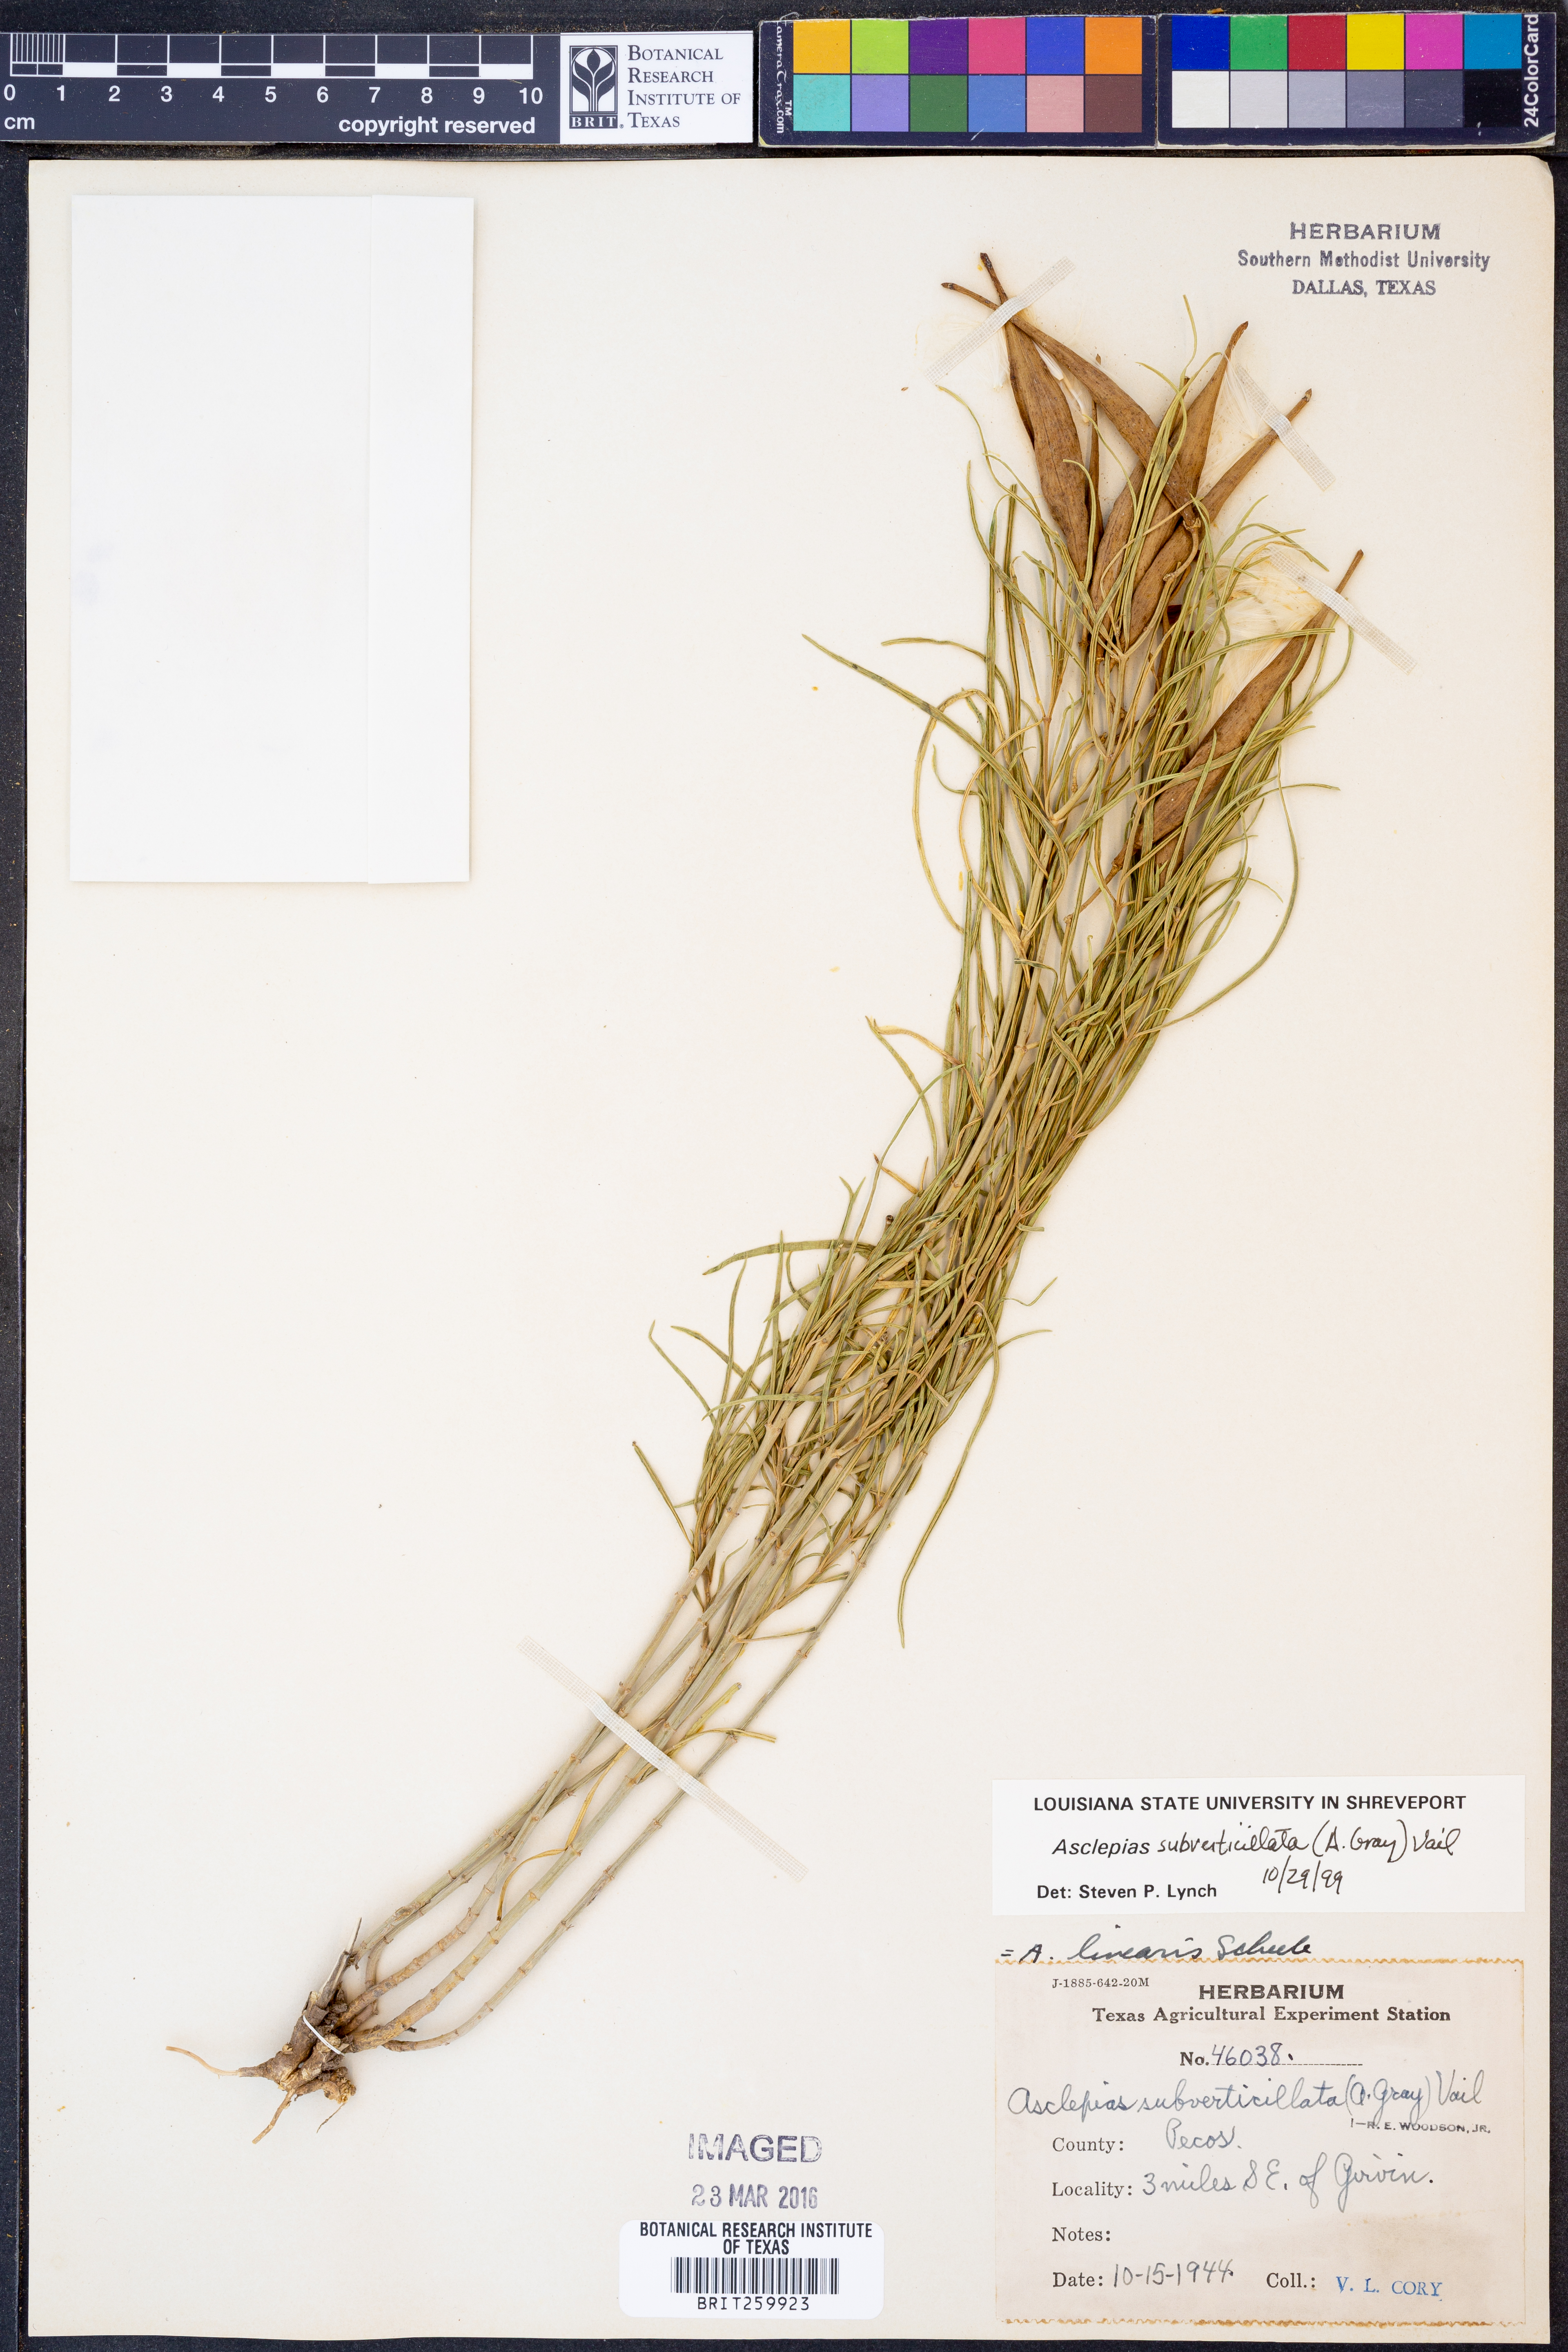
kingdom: Plantae
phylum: Tracheophyta
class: Magnoliopsida
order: Gentianales
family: Apocynaceae
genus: Asclepias
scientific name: Asclepias subverticillata
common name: Horsetail milkweed
